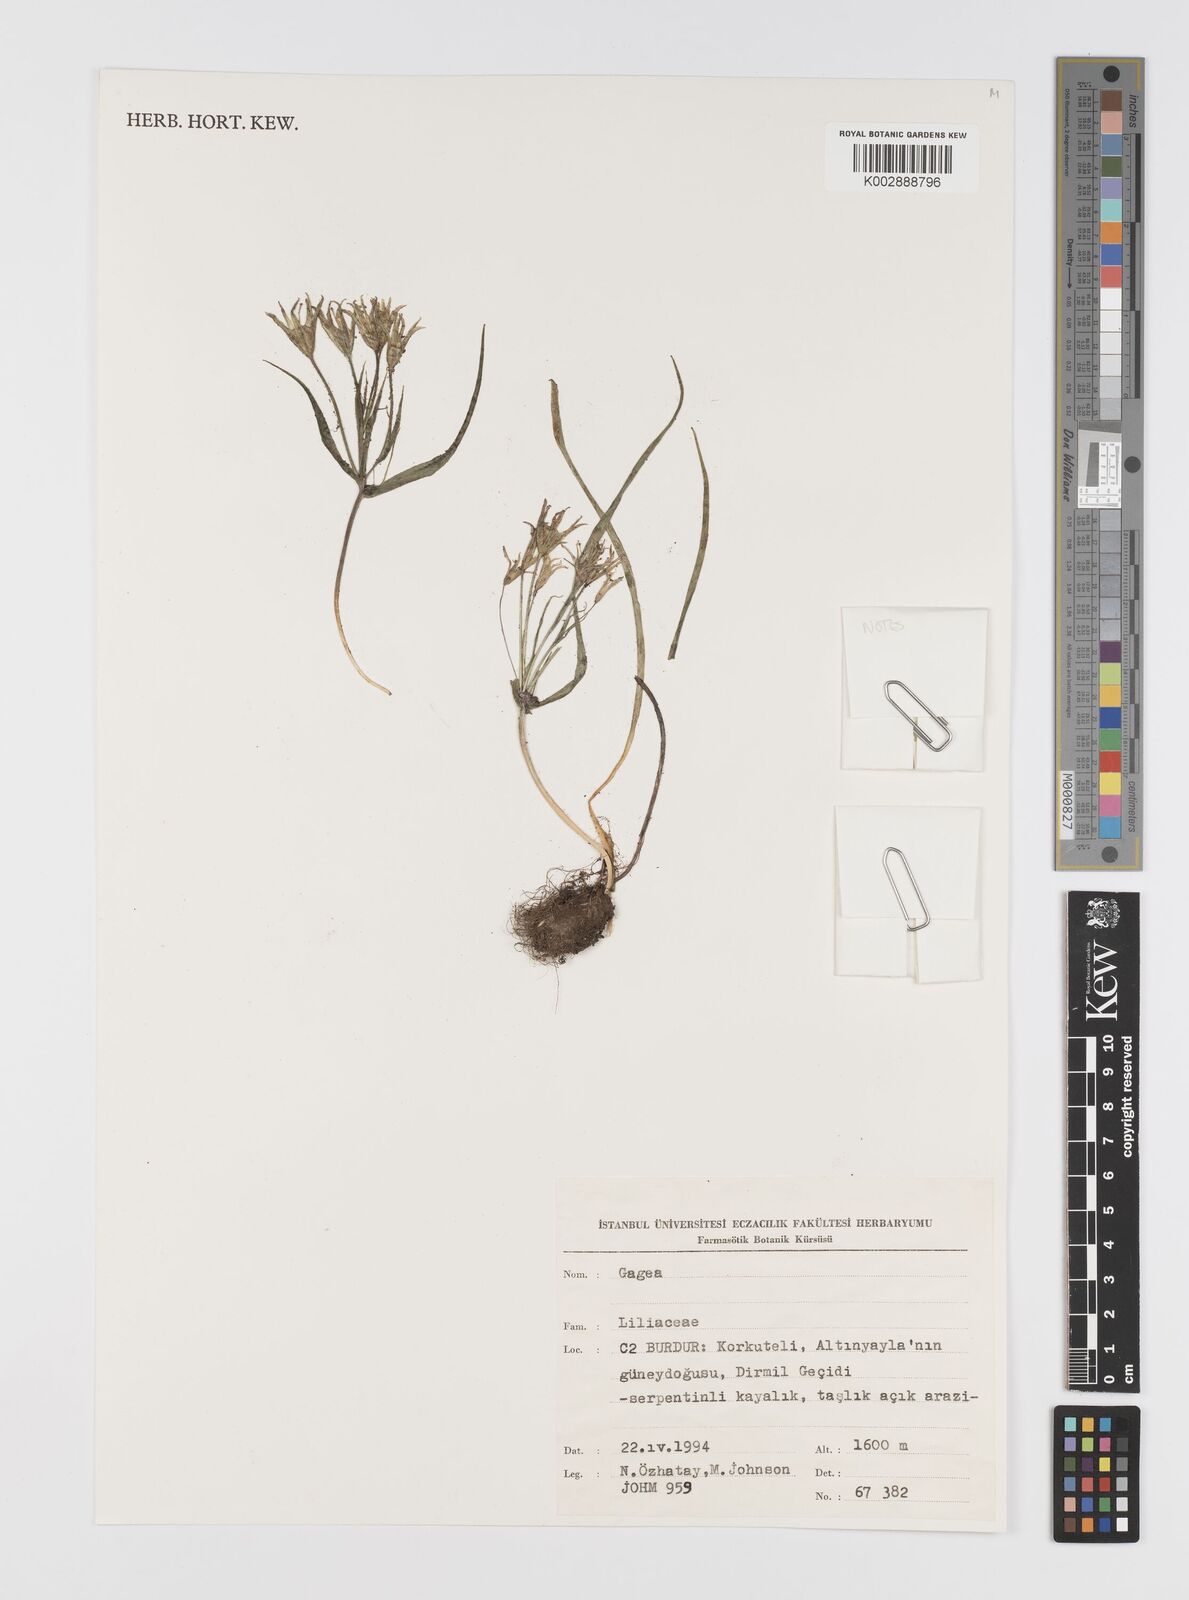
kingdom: Plantae
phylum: Tracheophyta
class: Liliopsida
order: Liliales
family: Liliaceae
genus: Gagea
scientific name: Gagea
